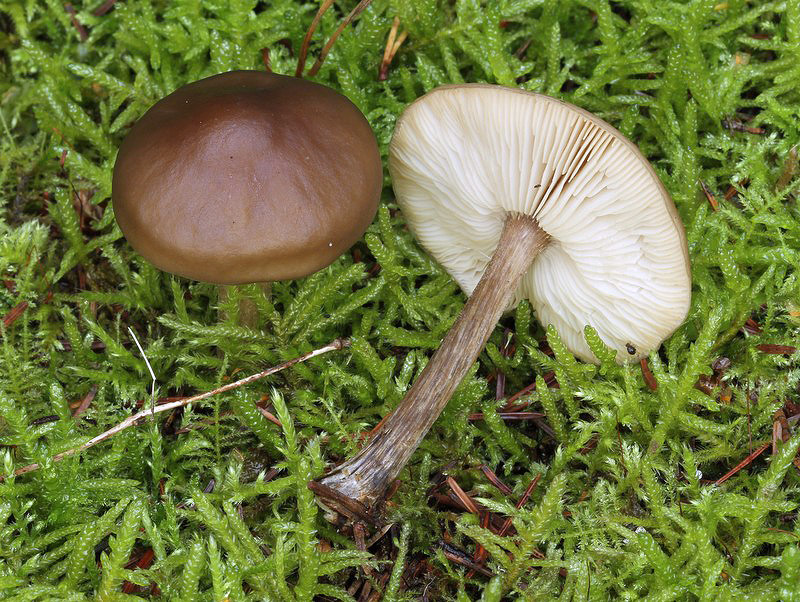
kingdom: Fungi
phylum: Basidiomycota
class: Agaricomycetes
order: Agaricales
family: Tricholomataceae
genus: Melanoleuca
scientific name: Melanoleuca polioleuca
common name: almindelig munkehat
